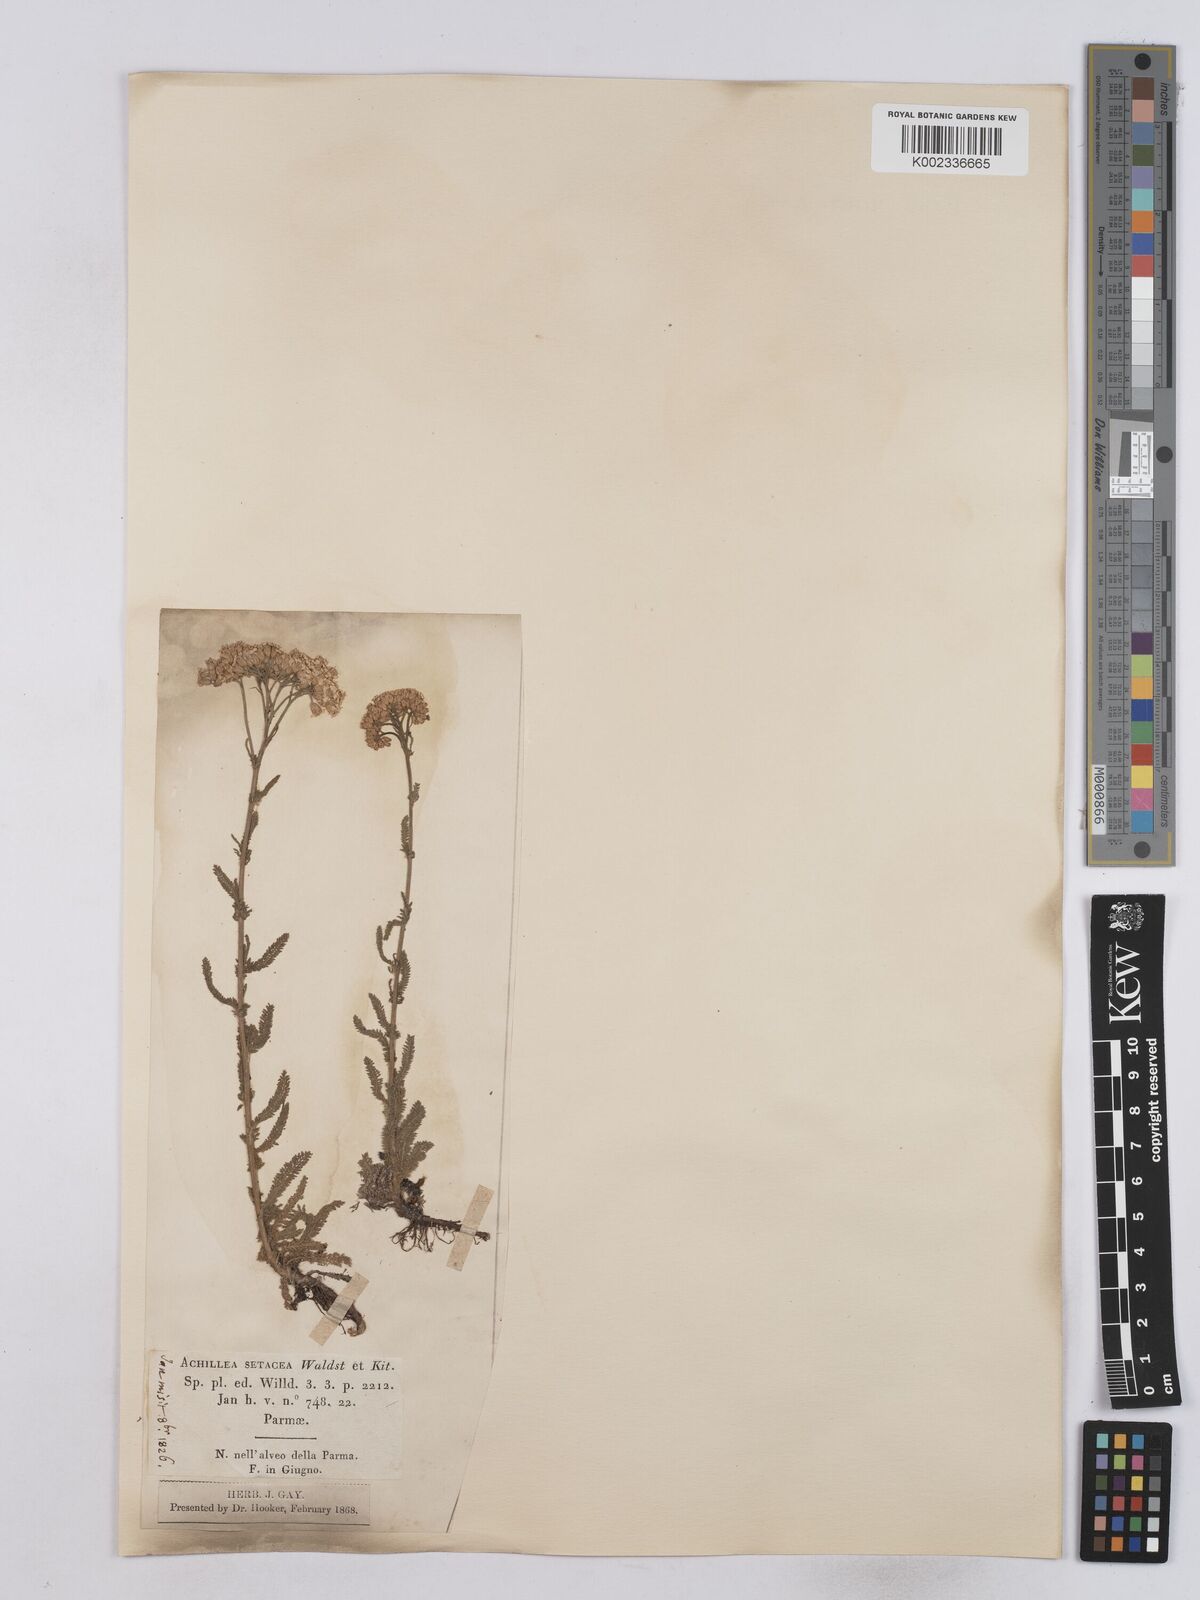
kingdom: Plantae
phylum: Tracheophyta
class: Magnoliopsida
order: Asterales
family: Asteraceae
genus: Achillea
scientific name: Achillea setacea
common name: Bristly yarrow
